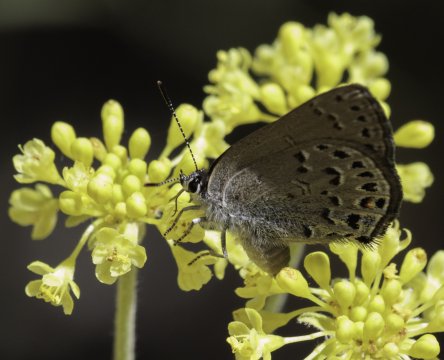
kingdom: Animalia
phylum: Arthropoda
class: Insecta
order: Lepidoptera
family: Lycaenidae
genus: Satyrium
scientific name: Satyrium behrii
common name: Behr's Hairstreak
